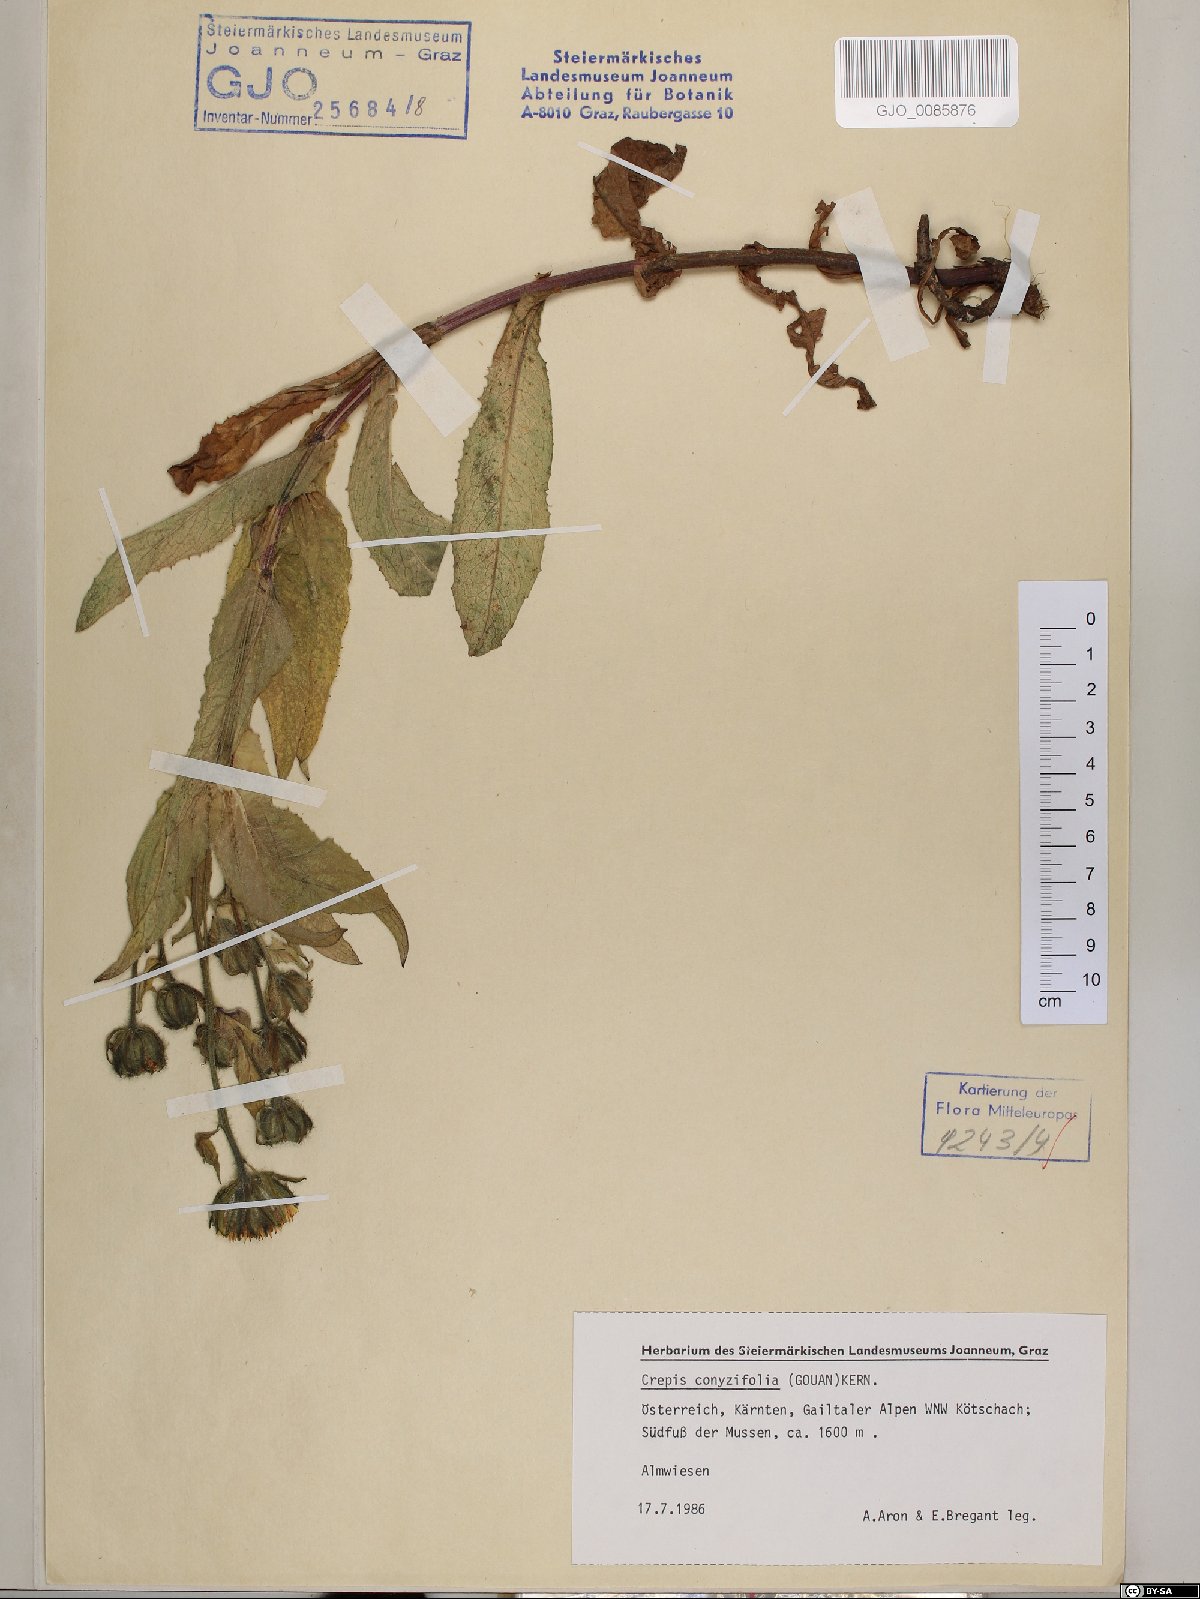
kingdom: Plantae
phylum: Tracheophyta
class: Magnoliopsida
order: Asterales
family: Asteraceae
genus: Crepis
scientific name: Crepis blattarioides
